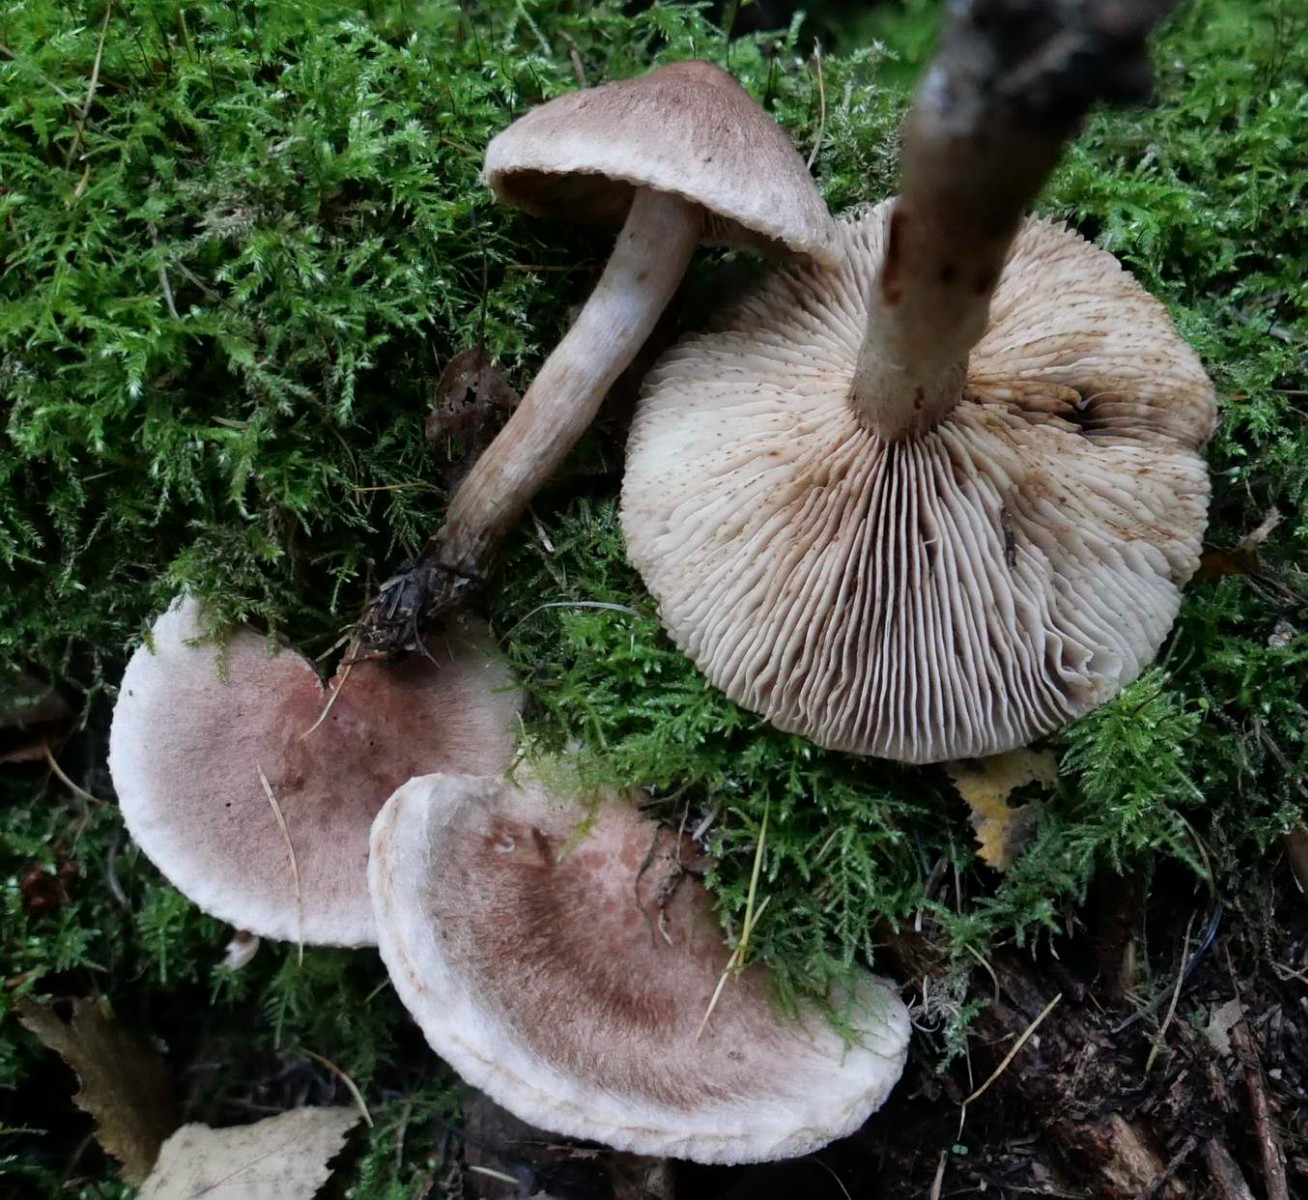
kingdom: Fungi
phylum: Basidiomycota
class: Agaricomycetes
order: Agaricales
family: Tricholomataceae
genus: Tricholoma
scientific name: Tricholoma vaccinum
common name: ko-ridderhat
